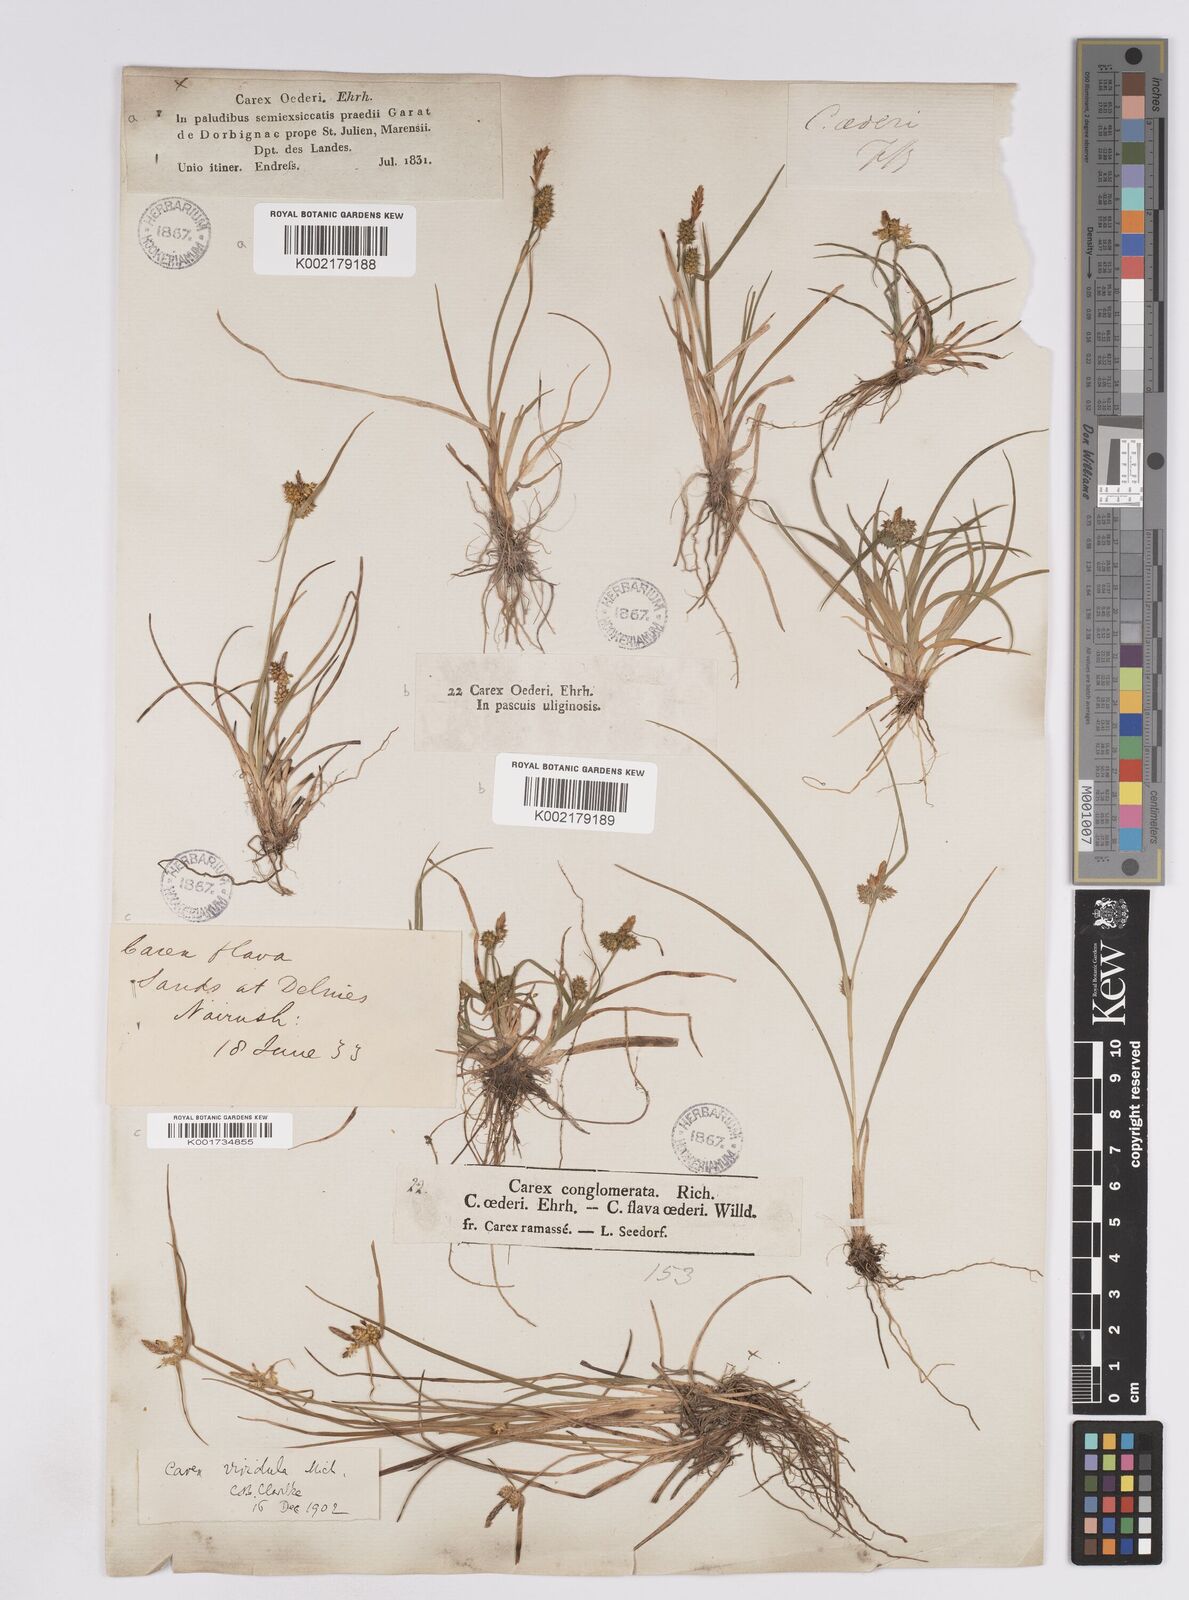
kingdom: Plantae
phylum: Tracheophyta
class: Liliopsida
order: Poales
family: Cyperaceae
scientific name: Cyperaceae
